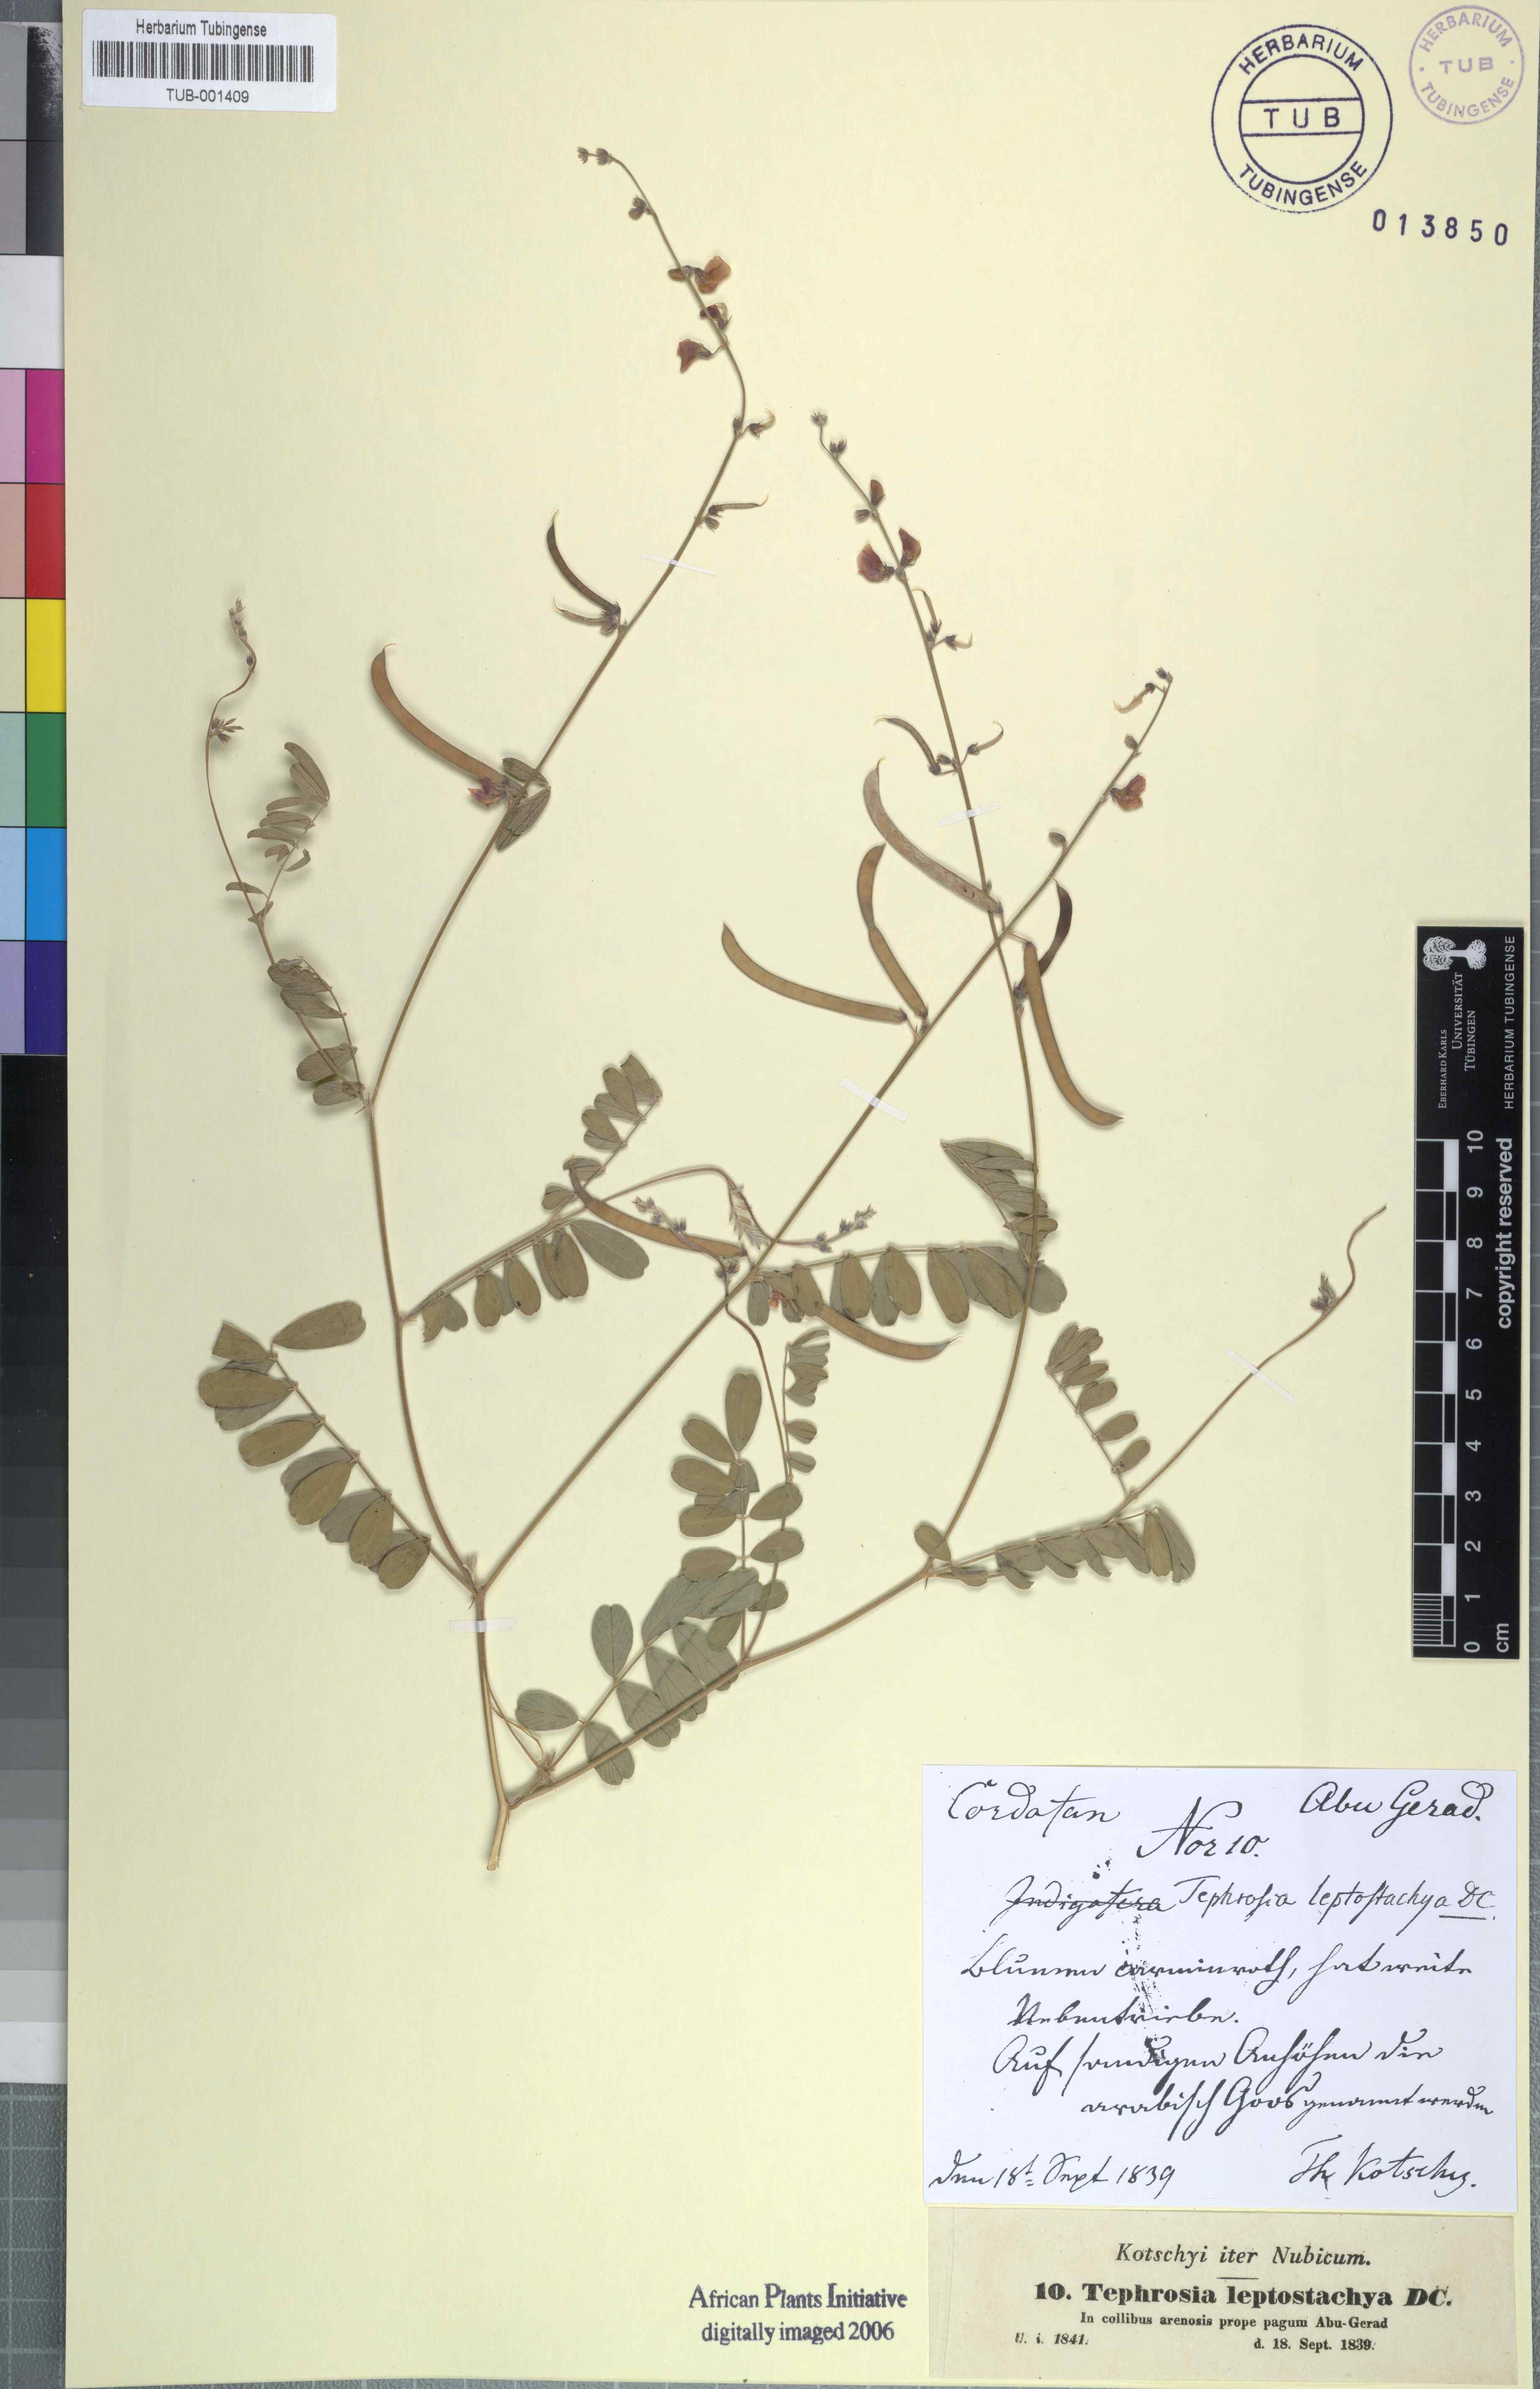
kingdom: Plantae
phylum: Tracheophyta
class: Magnoliopsida
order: Fabales
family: Fabaceae
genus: Tephrosia
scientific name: Tephrosia purpurea
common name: Fishpoison
